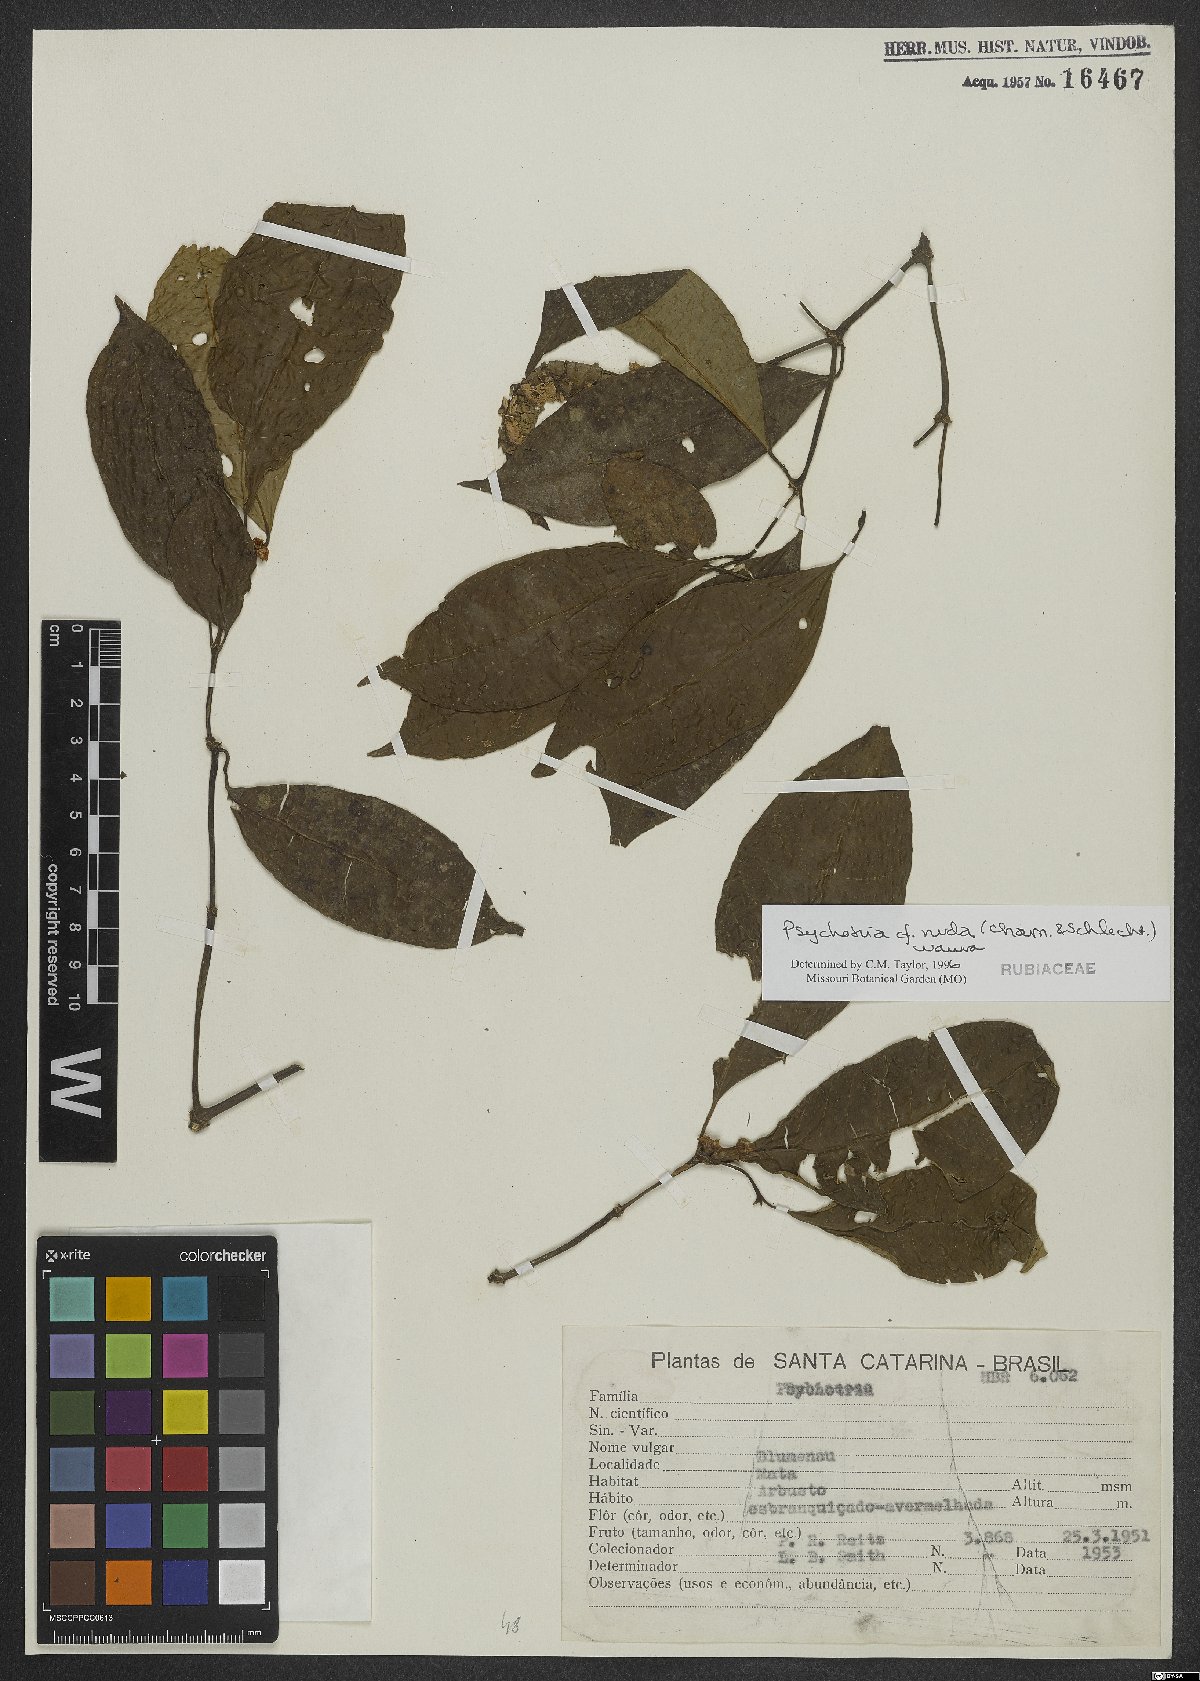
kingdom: Plantae
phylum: Tracheophyta
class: Magnoliopsida
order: Gentianales
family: Rubiaceae
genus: Psychotria
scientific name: Psychotria nuda
